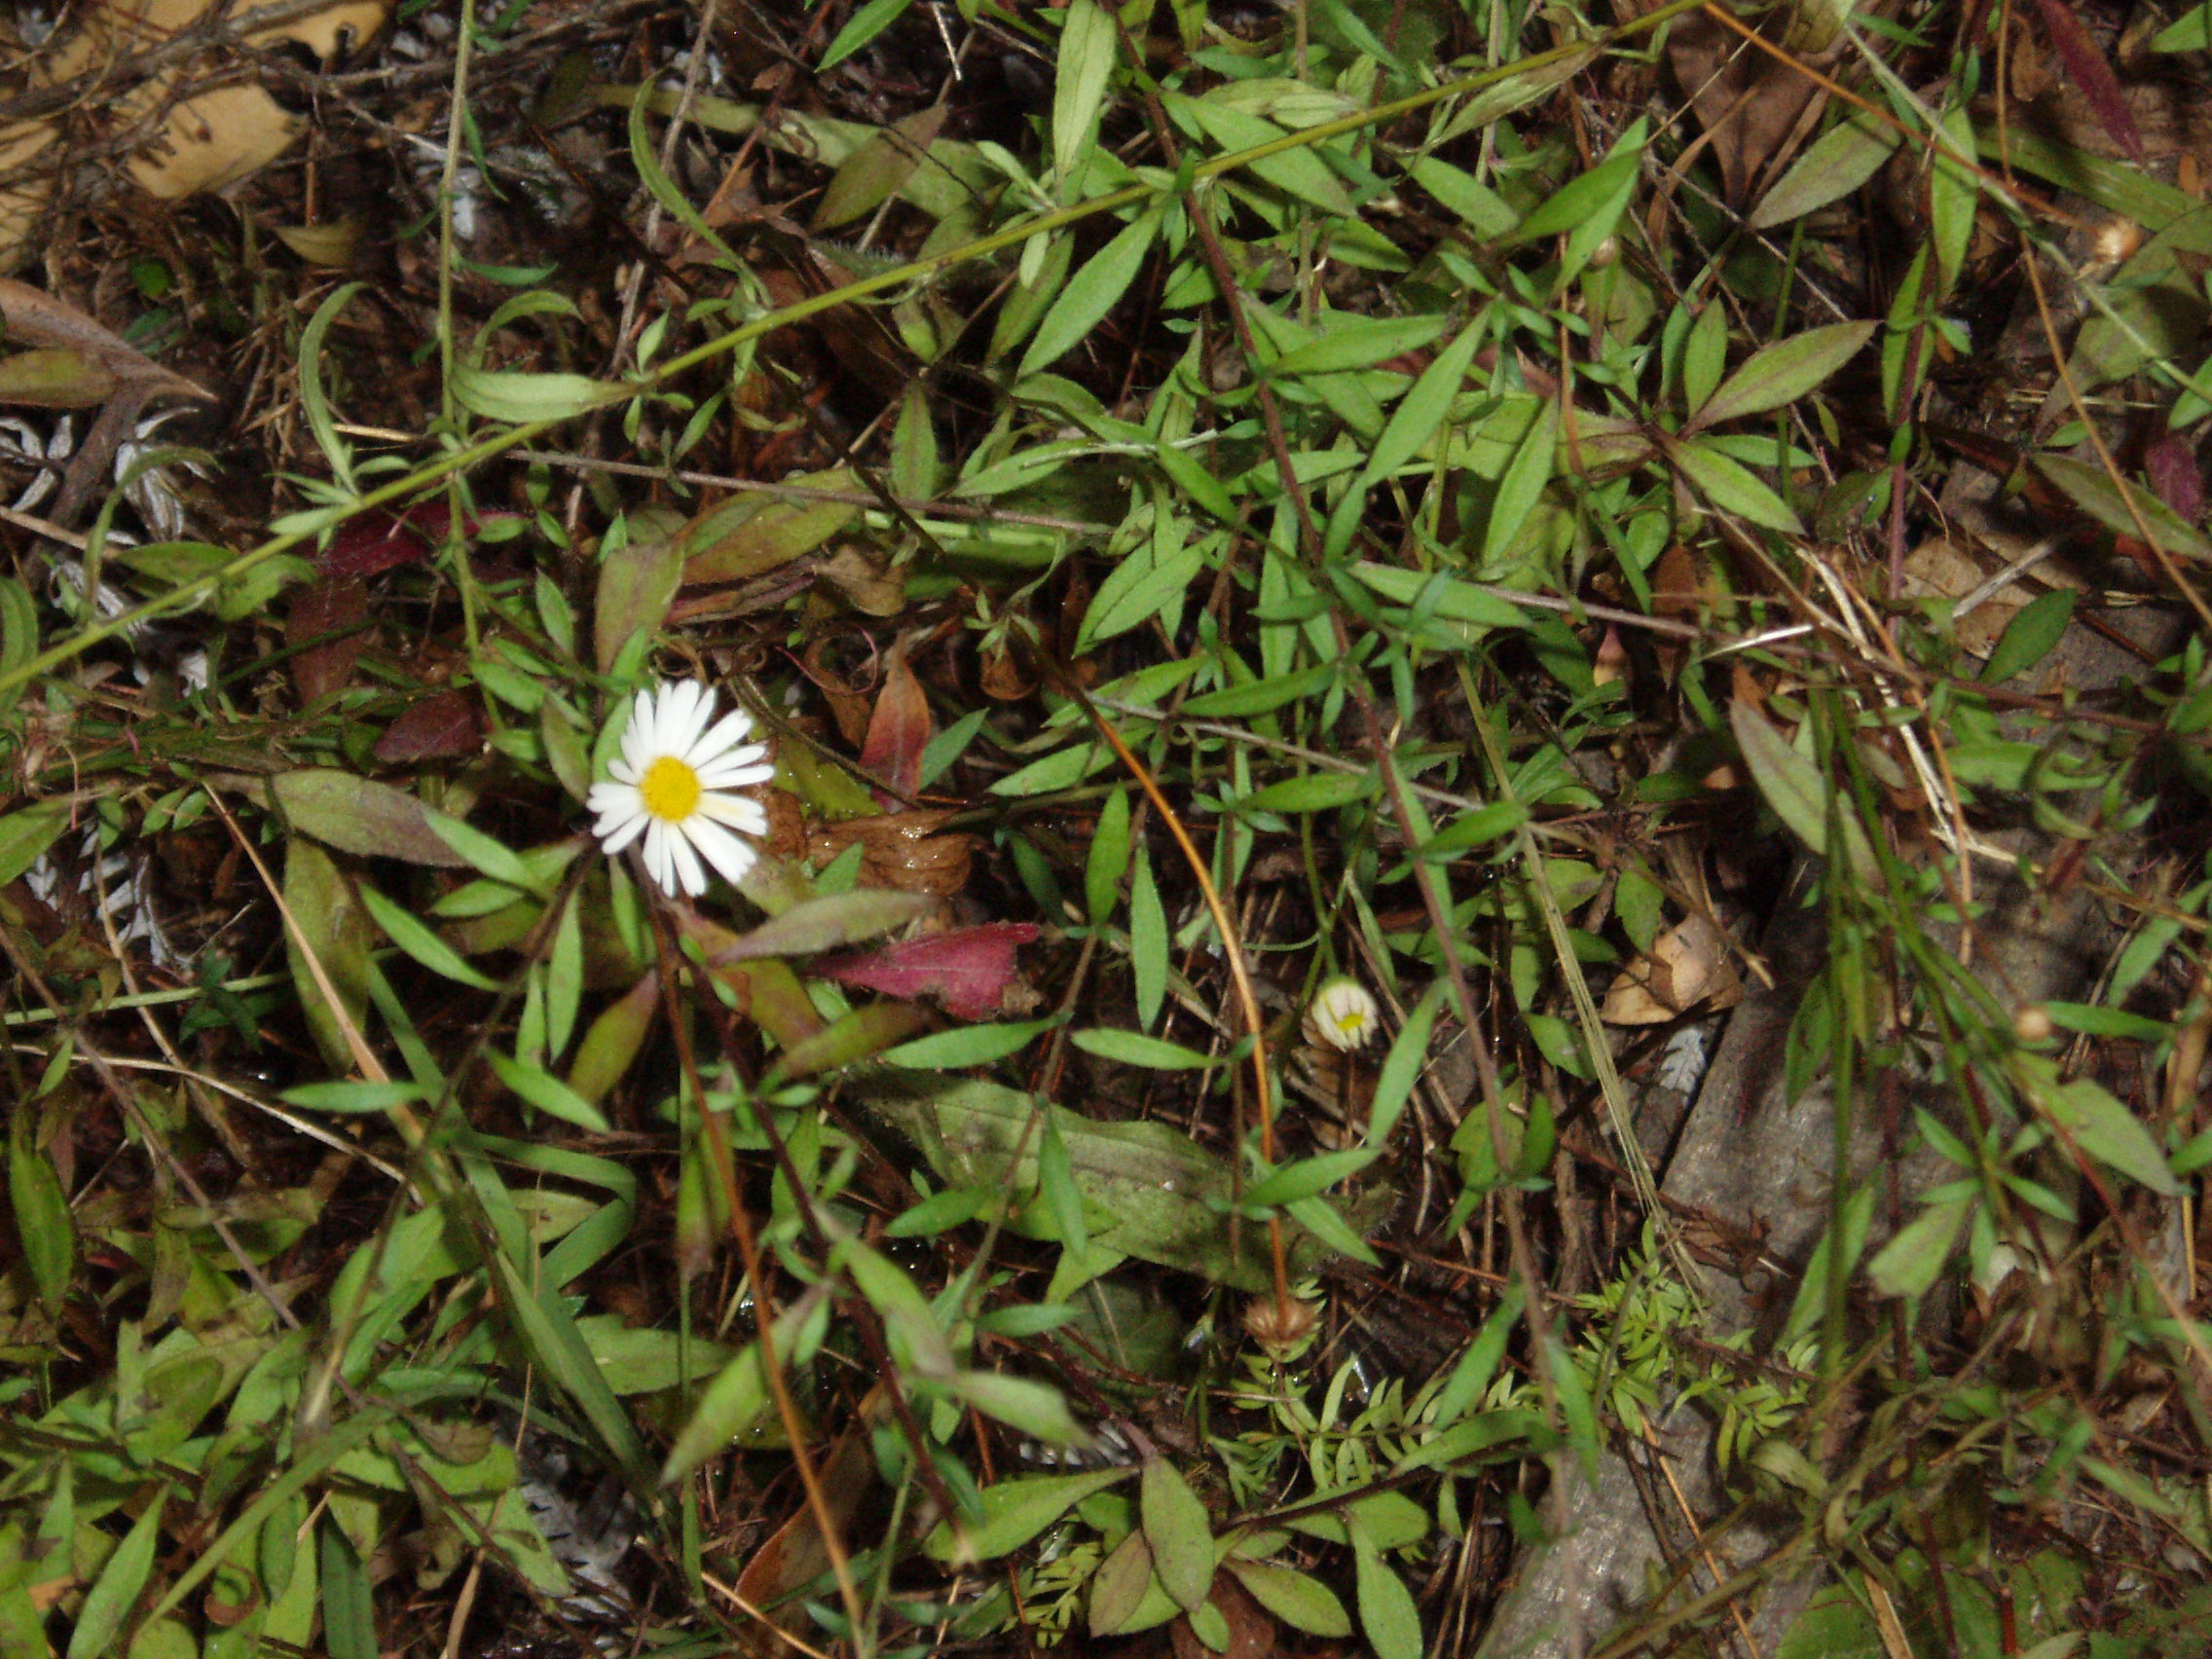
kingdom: Plantae
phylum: Tracheophyta
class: Magnoliopsida
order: Asterales
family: Asteraceae
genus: Erigeron
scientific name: Erigeron karvinskianus
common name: Mexican fleabane
